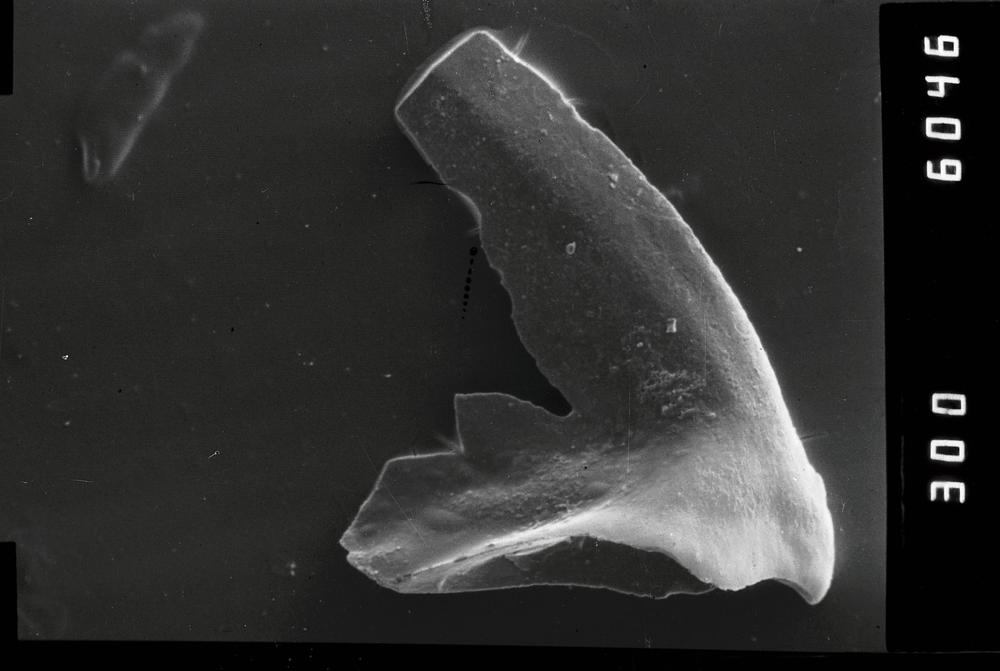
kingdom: Animalia
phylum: Chordata
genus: Periodon
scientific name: Periodon aculeatus
